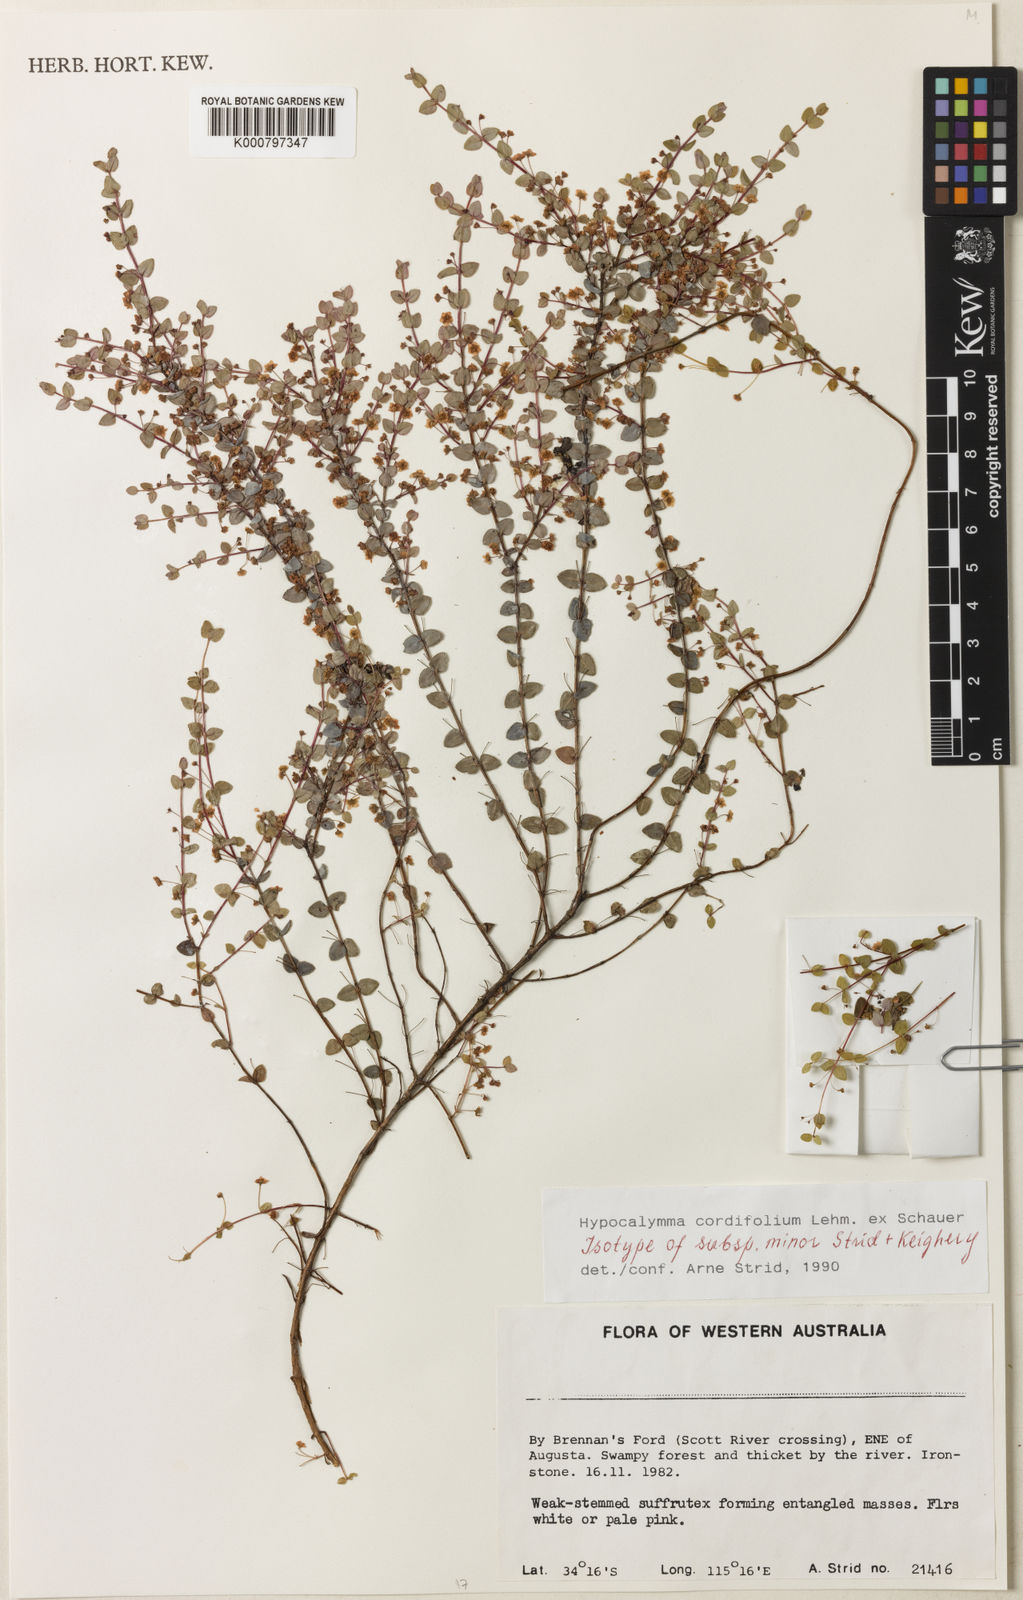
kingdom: Plantae
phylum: Tracheophyta
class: Magnoliopsida
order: Myrtales
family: Myrtaceae
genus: Hypocalymma
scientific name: Hypocalymma cordifolium
